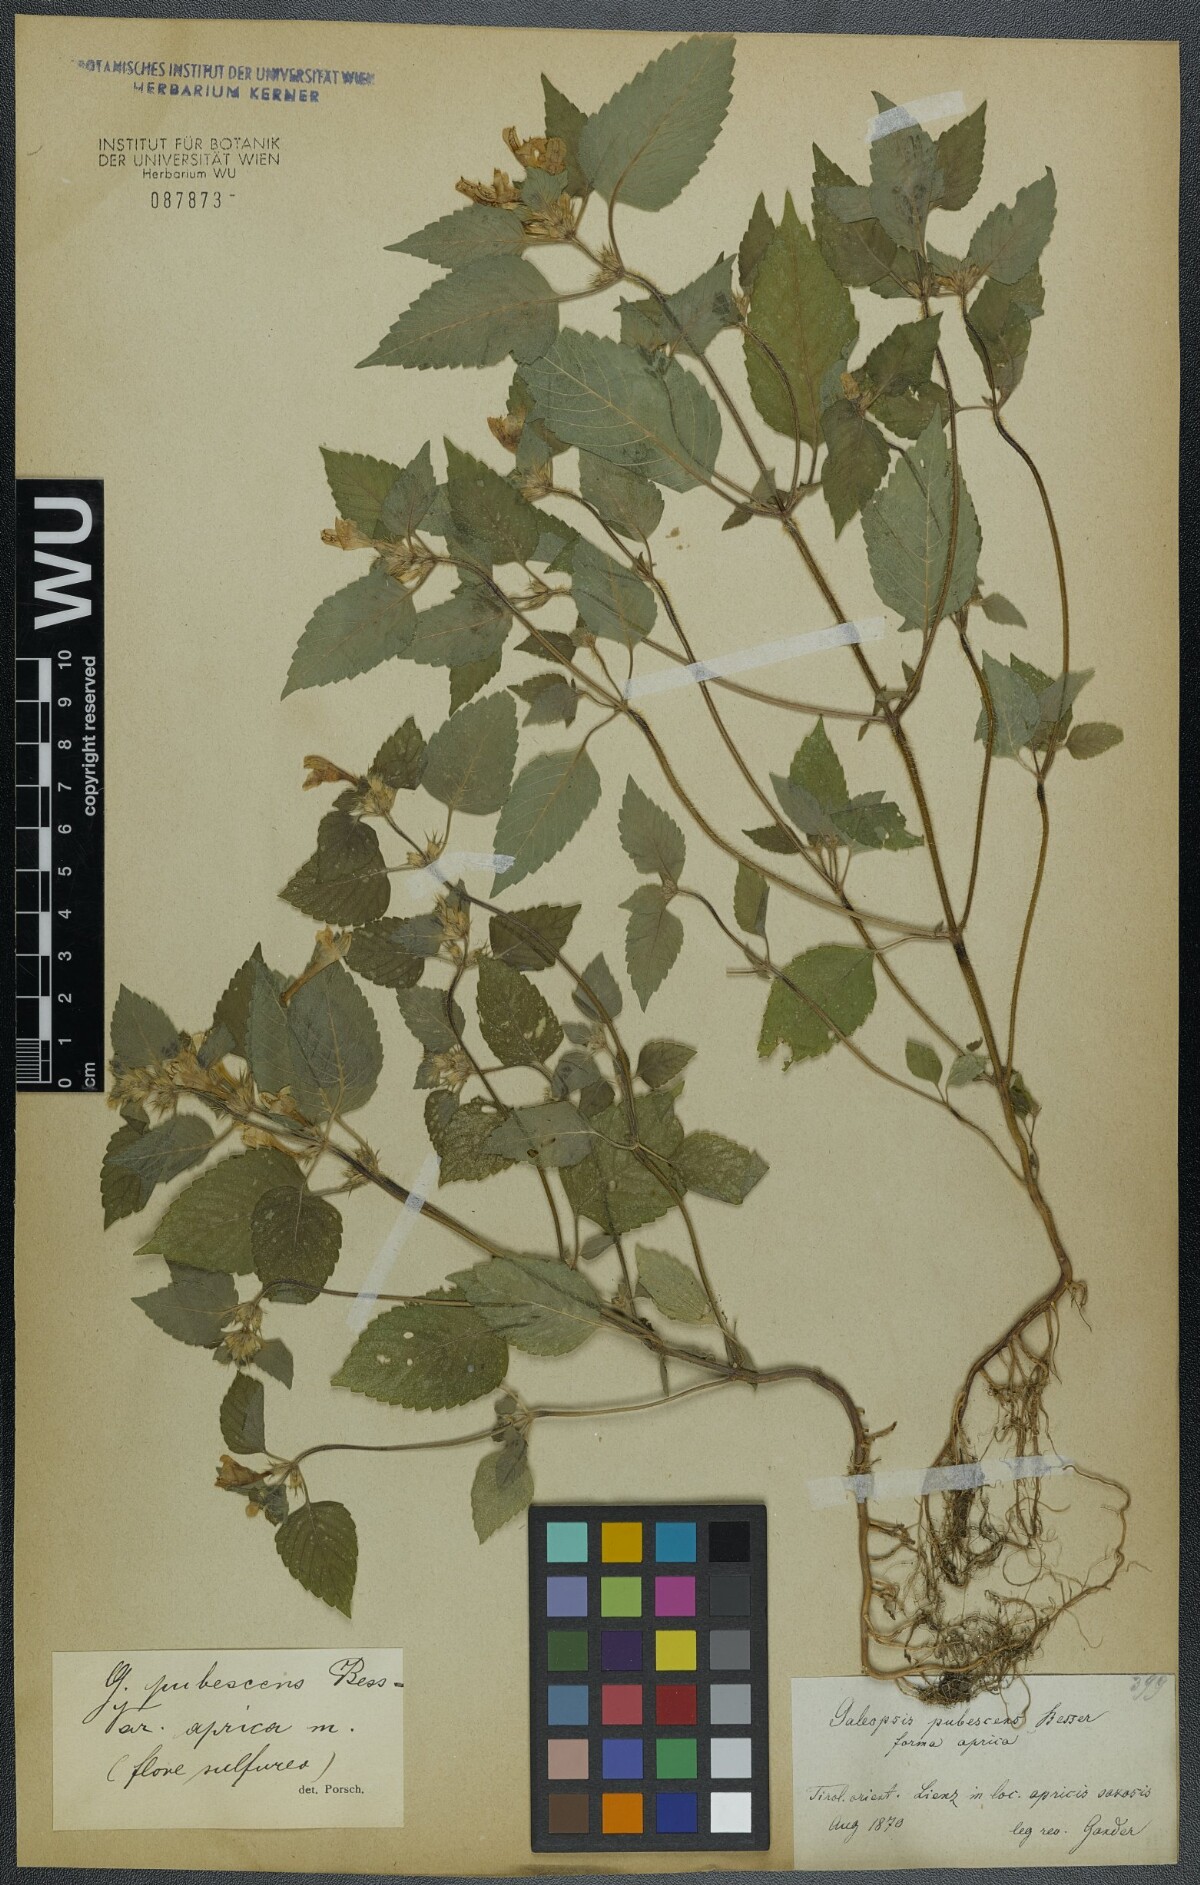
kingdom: Plantae
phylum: Tracheophyta
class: Magnoliopsida
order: Lamiales
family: Lamiaceae
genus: Galeopsis
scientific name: Galeopsis pubescens
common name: Downy hemp-nettle
